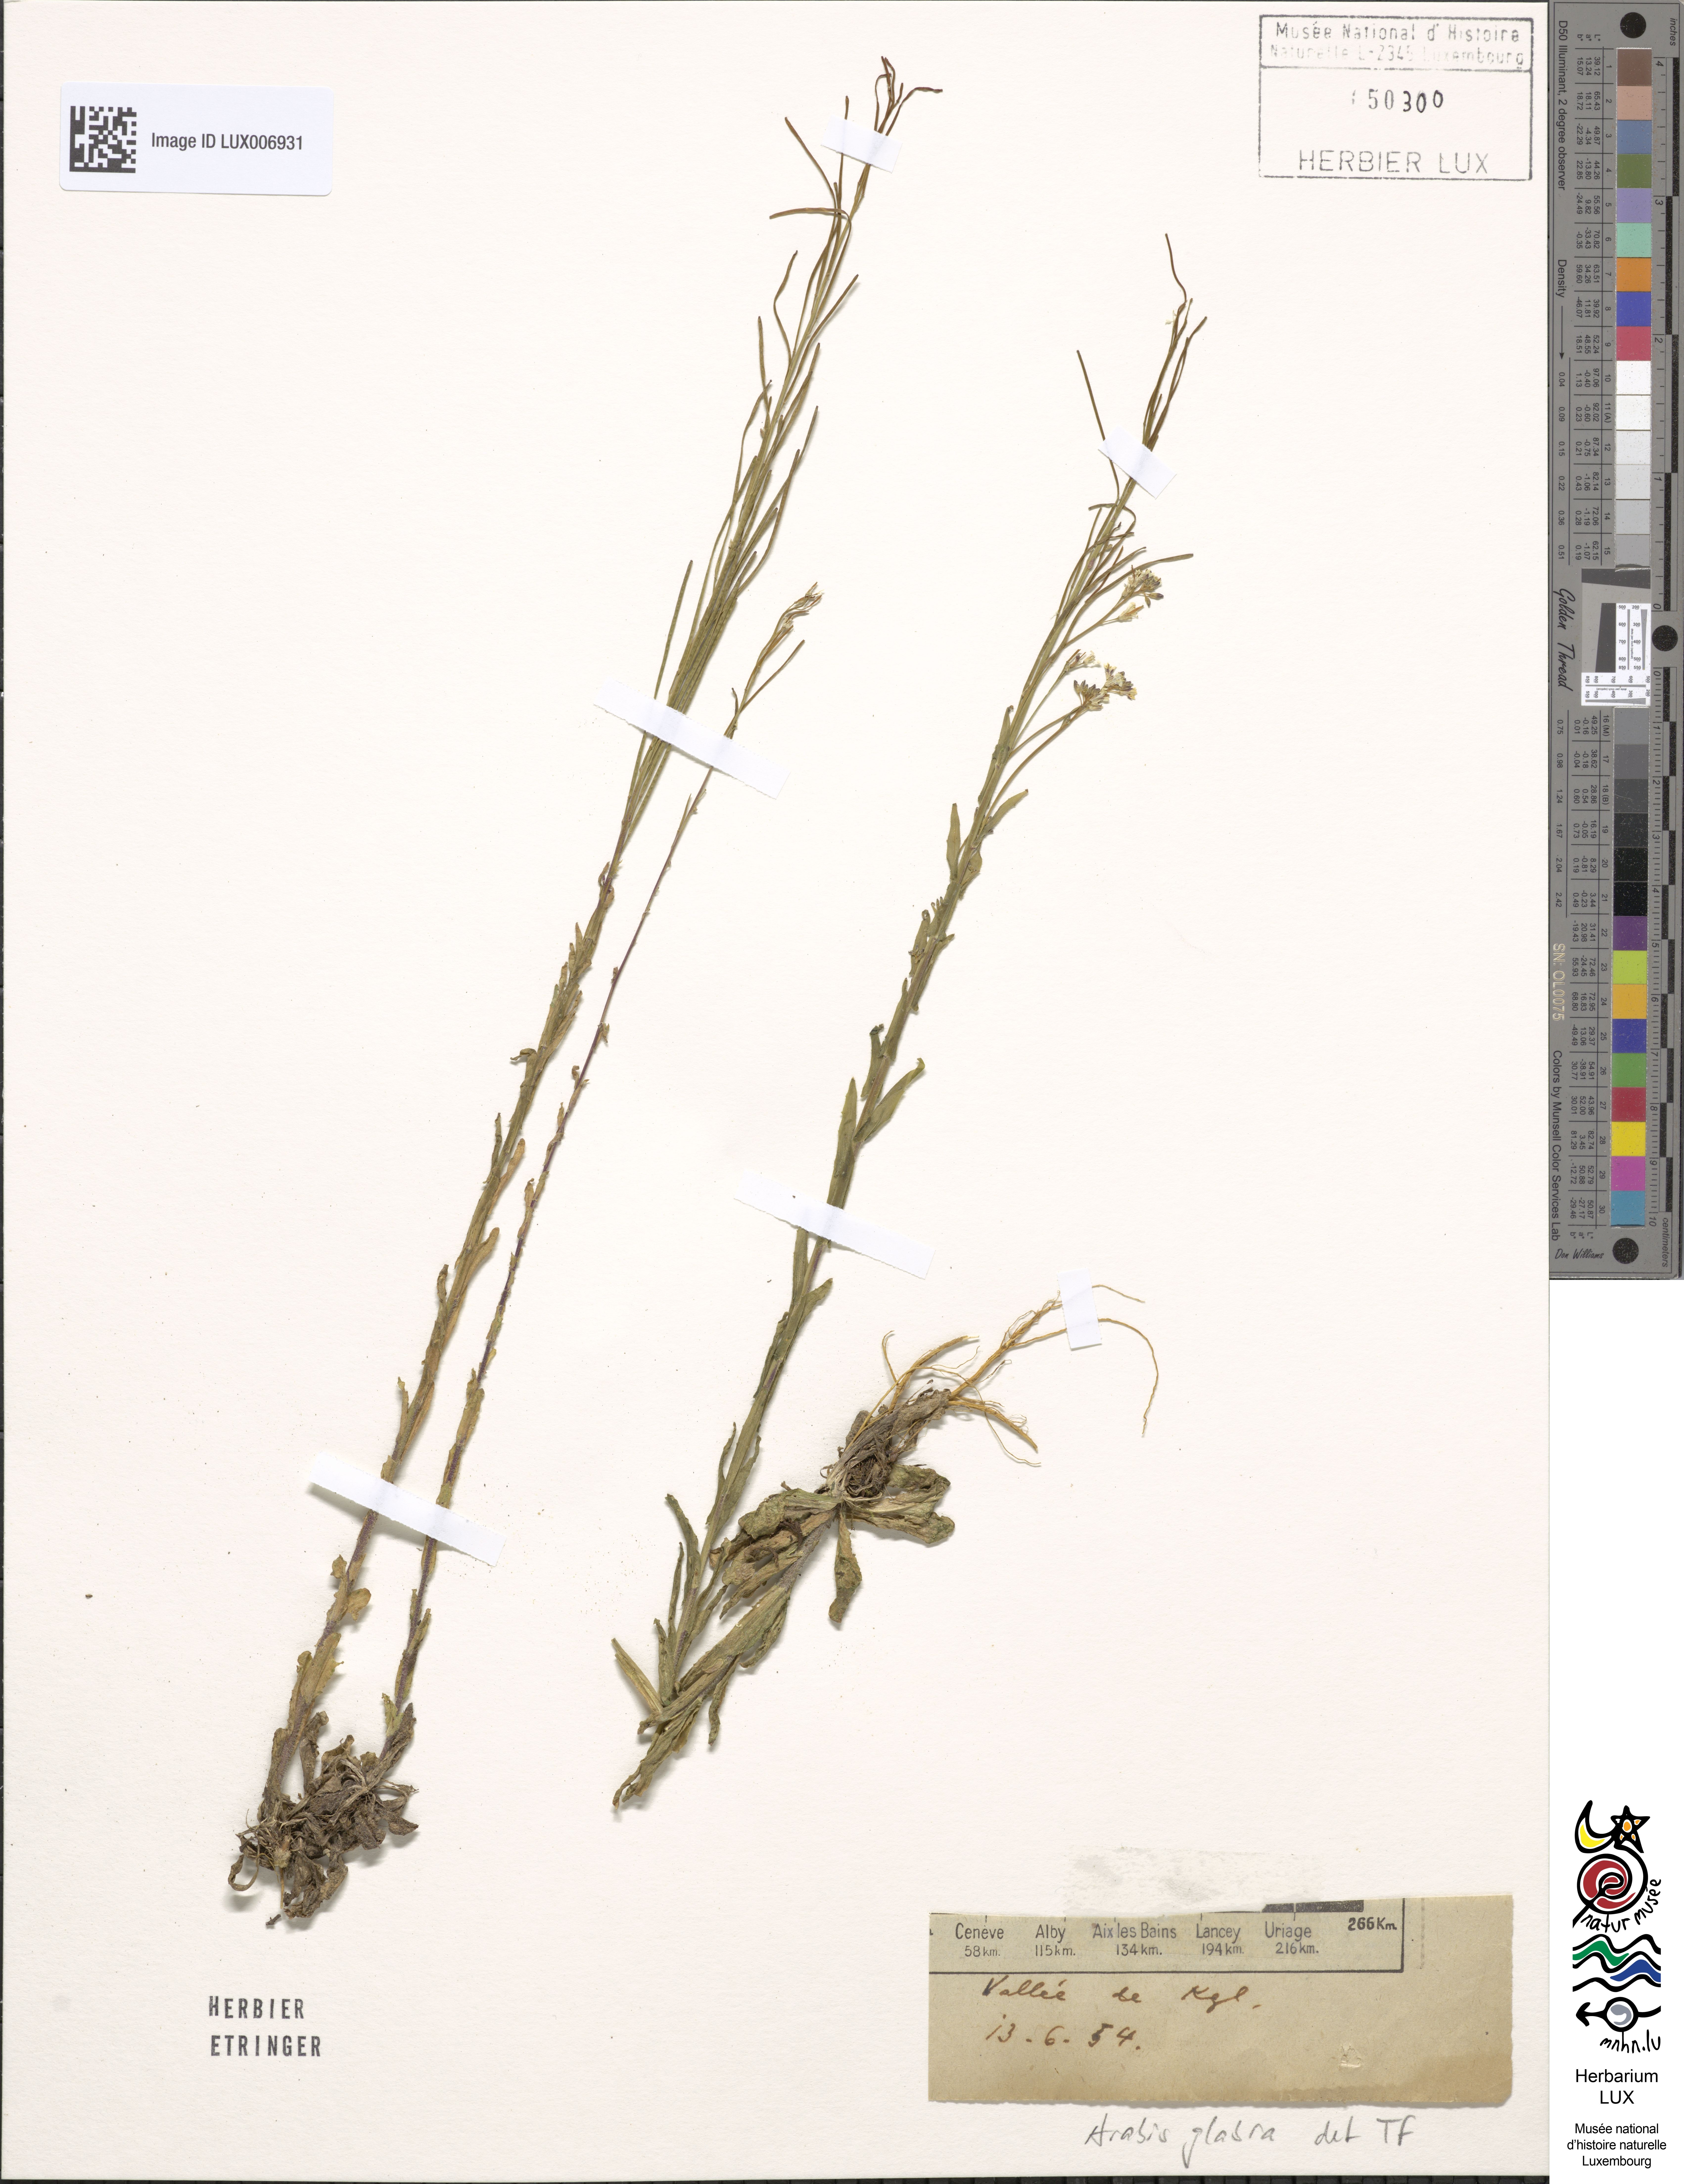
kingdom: Plantae
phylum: Tracheophyta
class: Magnoliopsida
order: Brassicales
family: Brassicaceae
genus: Turritis
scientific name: Turritis glabra
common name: Tower rockcress
